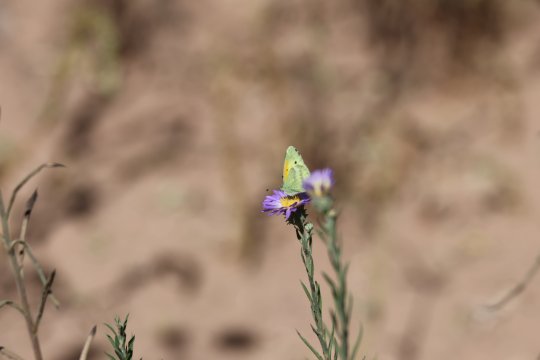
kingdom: Animalia
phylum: Arthropoda
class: Insecta
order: Lepidoptera
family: Pieridae
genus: Nathalis
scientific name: Nathalis iole
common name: Dainty Sulphur
